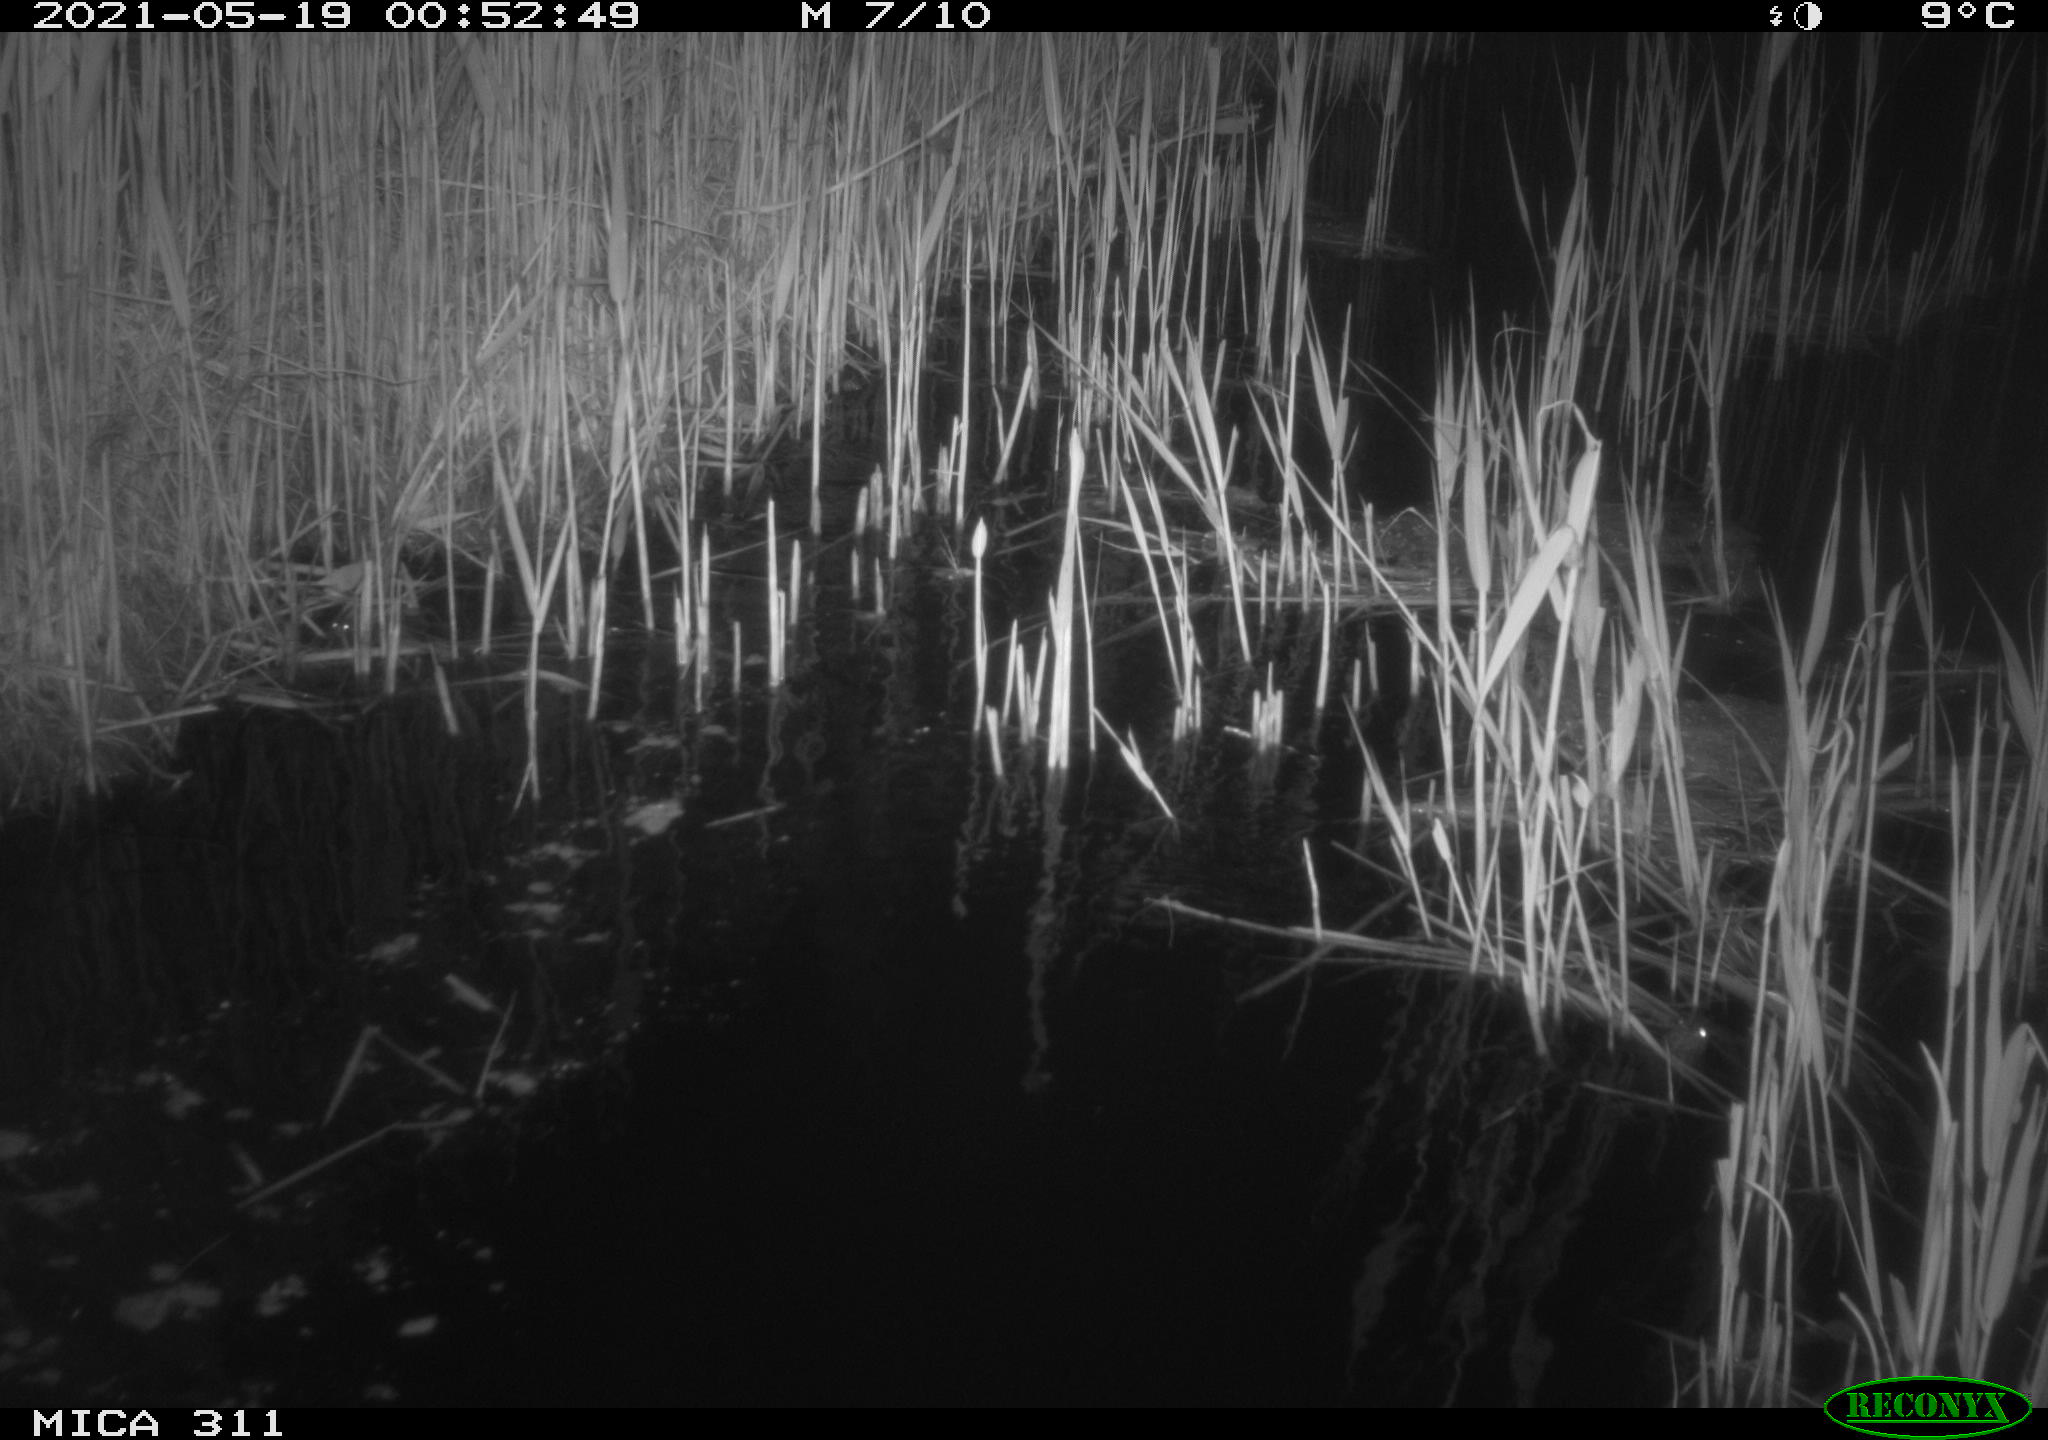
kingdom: Animalia
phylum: Chordata
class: Aves
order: Anseriformes
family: Anatidae
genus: Anas
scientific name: Anas
